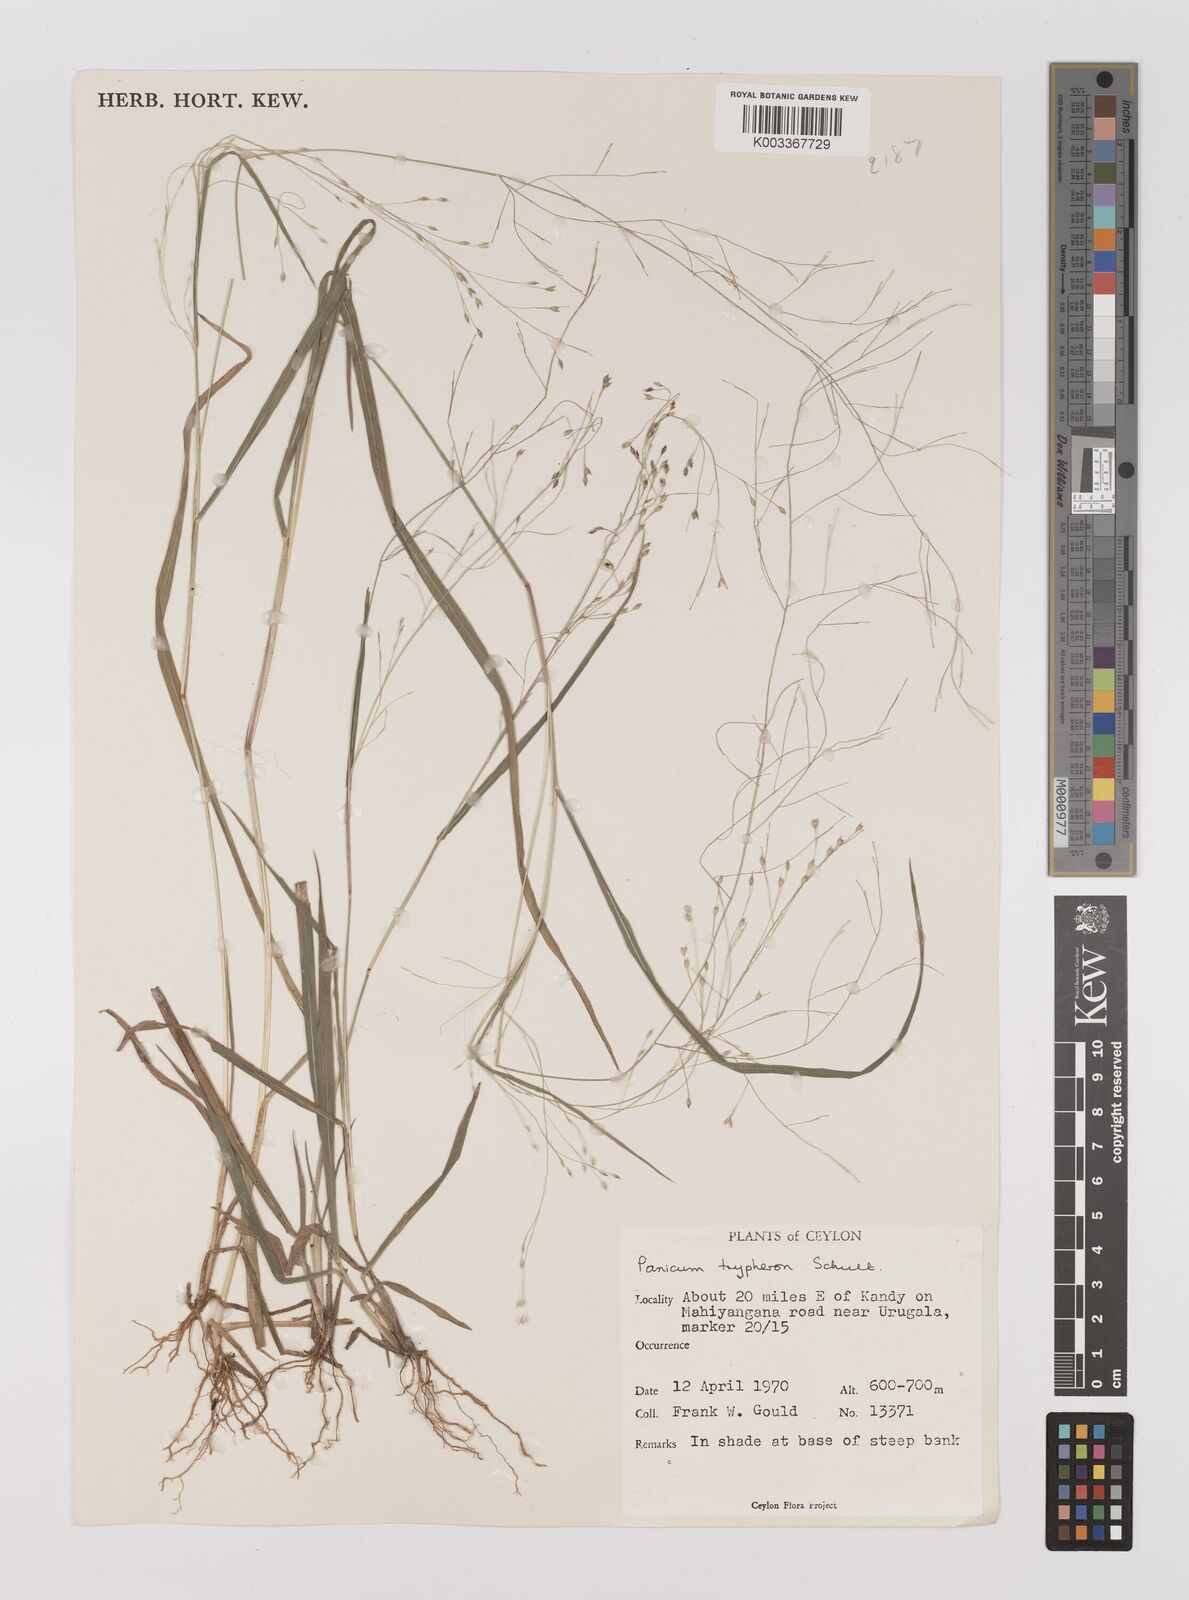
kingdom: Plantae
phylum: Tracheophyta
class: Liliopsida
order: Poales
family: Poaceae
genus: Panicum
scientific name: Panicum curviflorum
